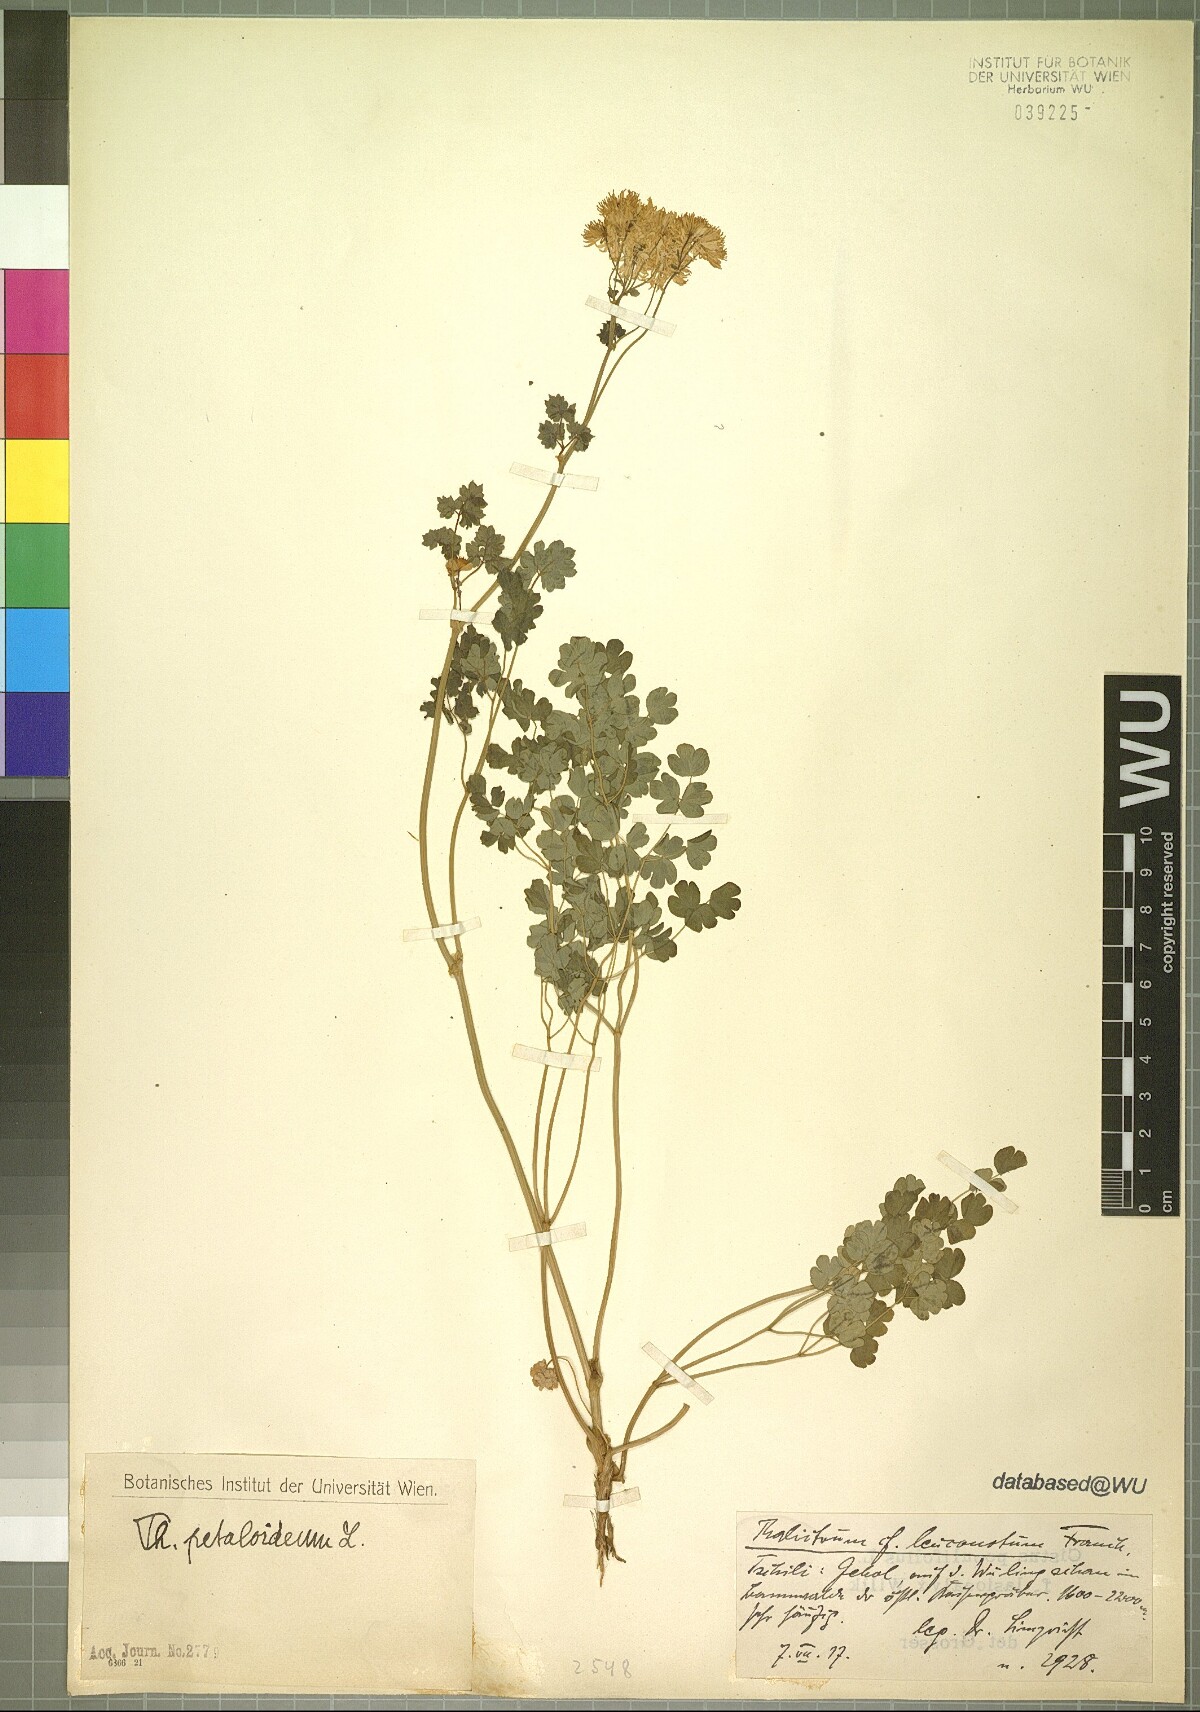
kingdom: Plantae
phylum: Tracheophyta
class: Magnoliopsida
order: Ranunculales
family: Ranunculaceae
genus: Thalictrum
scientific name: Thalictrum petaloideum
